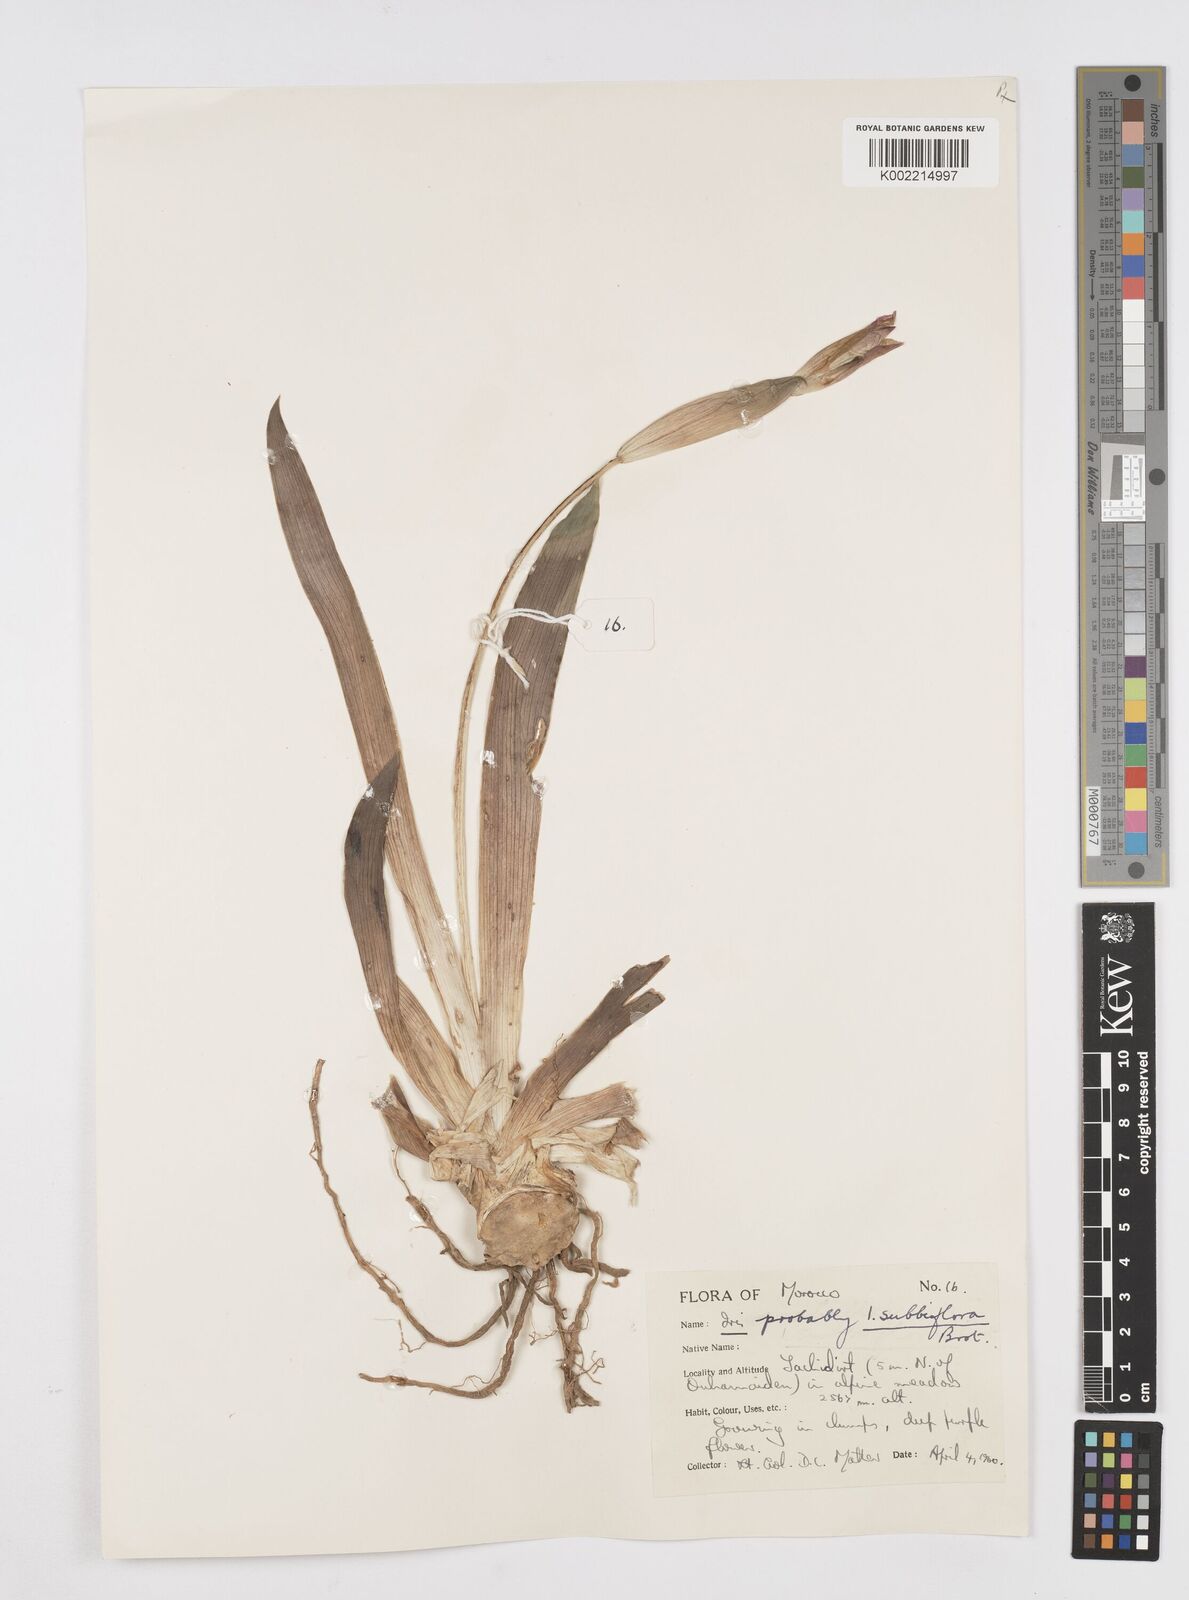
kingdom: Plantae
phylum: Tracheophyta
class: Liliopsida
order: Asparagales
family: Iridaceae
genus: Iris
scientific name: Iris lutescens
